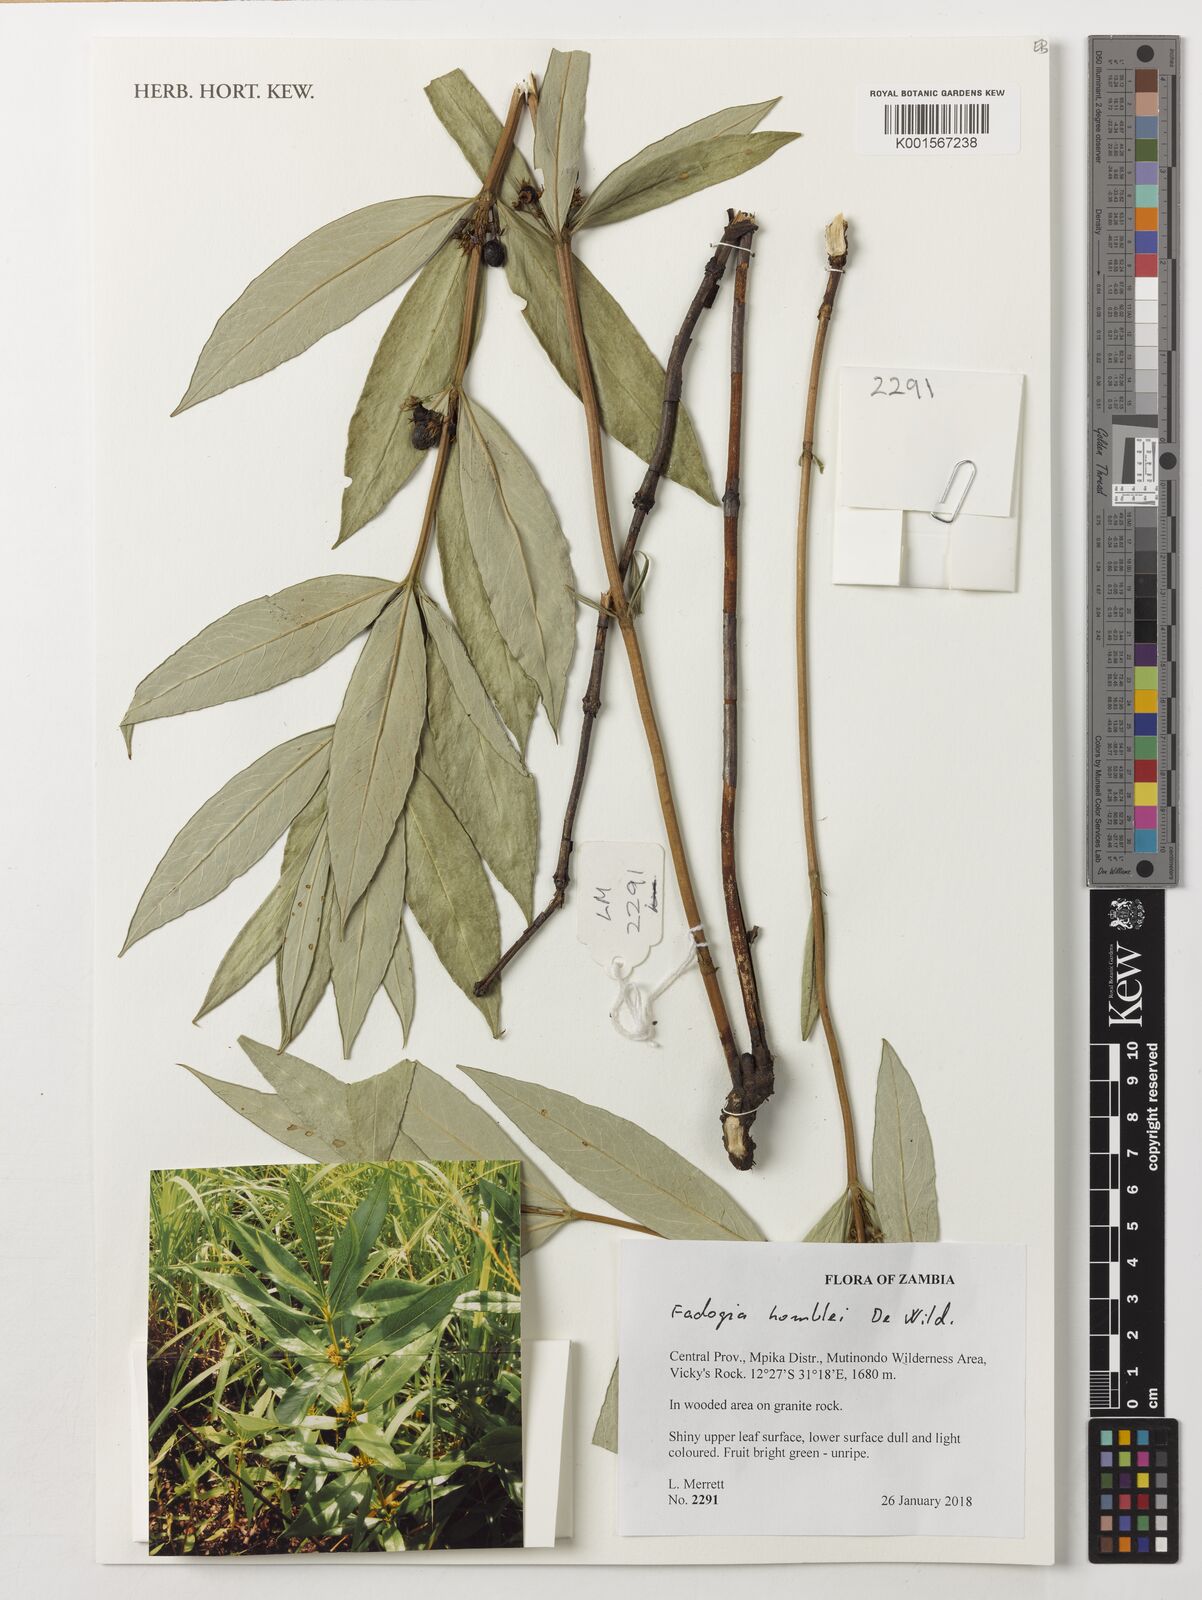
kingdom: Plantae
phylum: Tracheophyta
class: Magnoliopsida
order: Gentianales
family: Rubiaceae
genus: Fadogia
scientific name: Fadogia homblei
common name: Wild date
